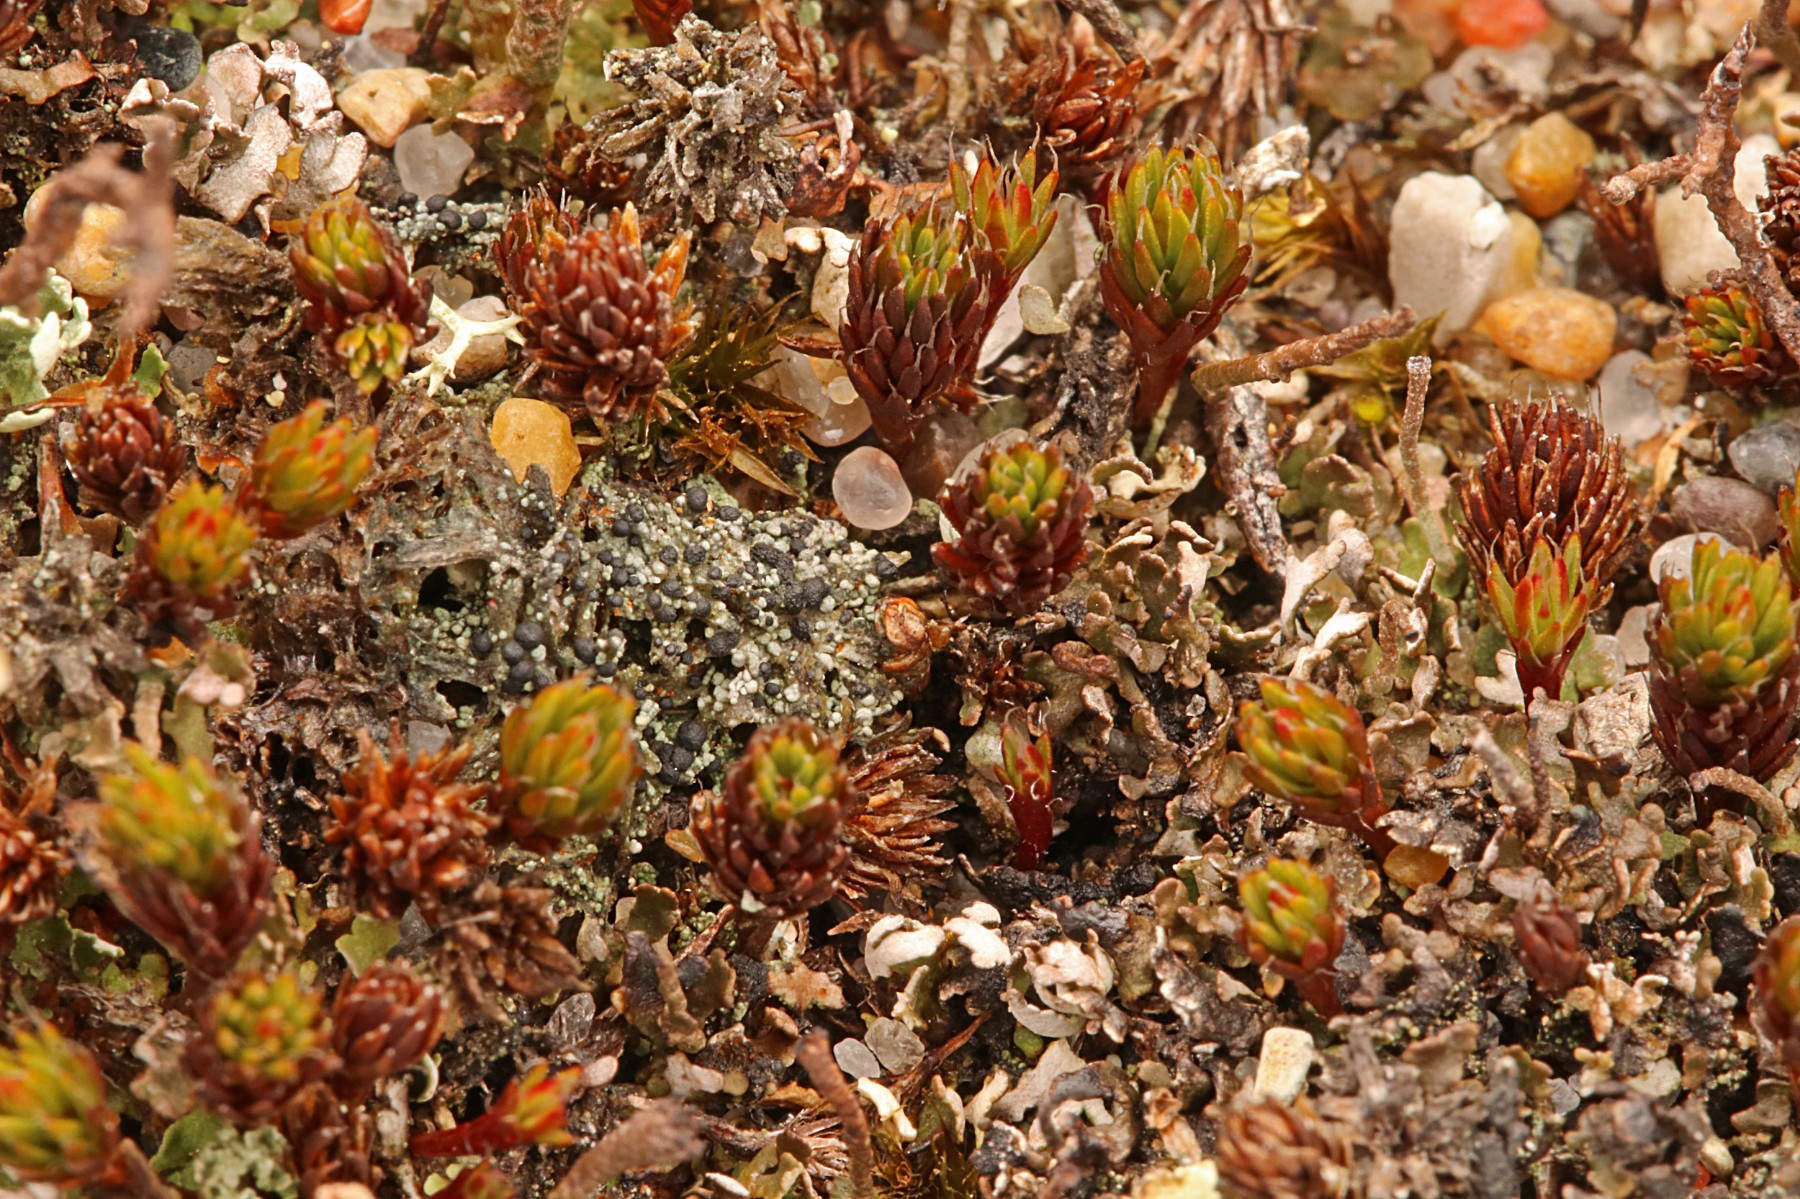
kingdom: Fungi
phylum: Ascomycota
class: Lecanoromycetes
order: Lecanorales
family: Byssolomataceae
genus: Micarea
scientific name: Micarea lignaria
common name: tørve-knaplav
